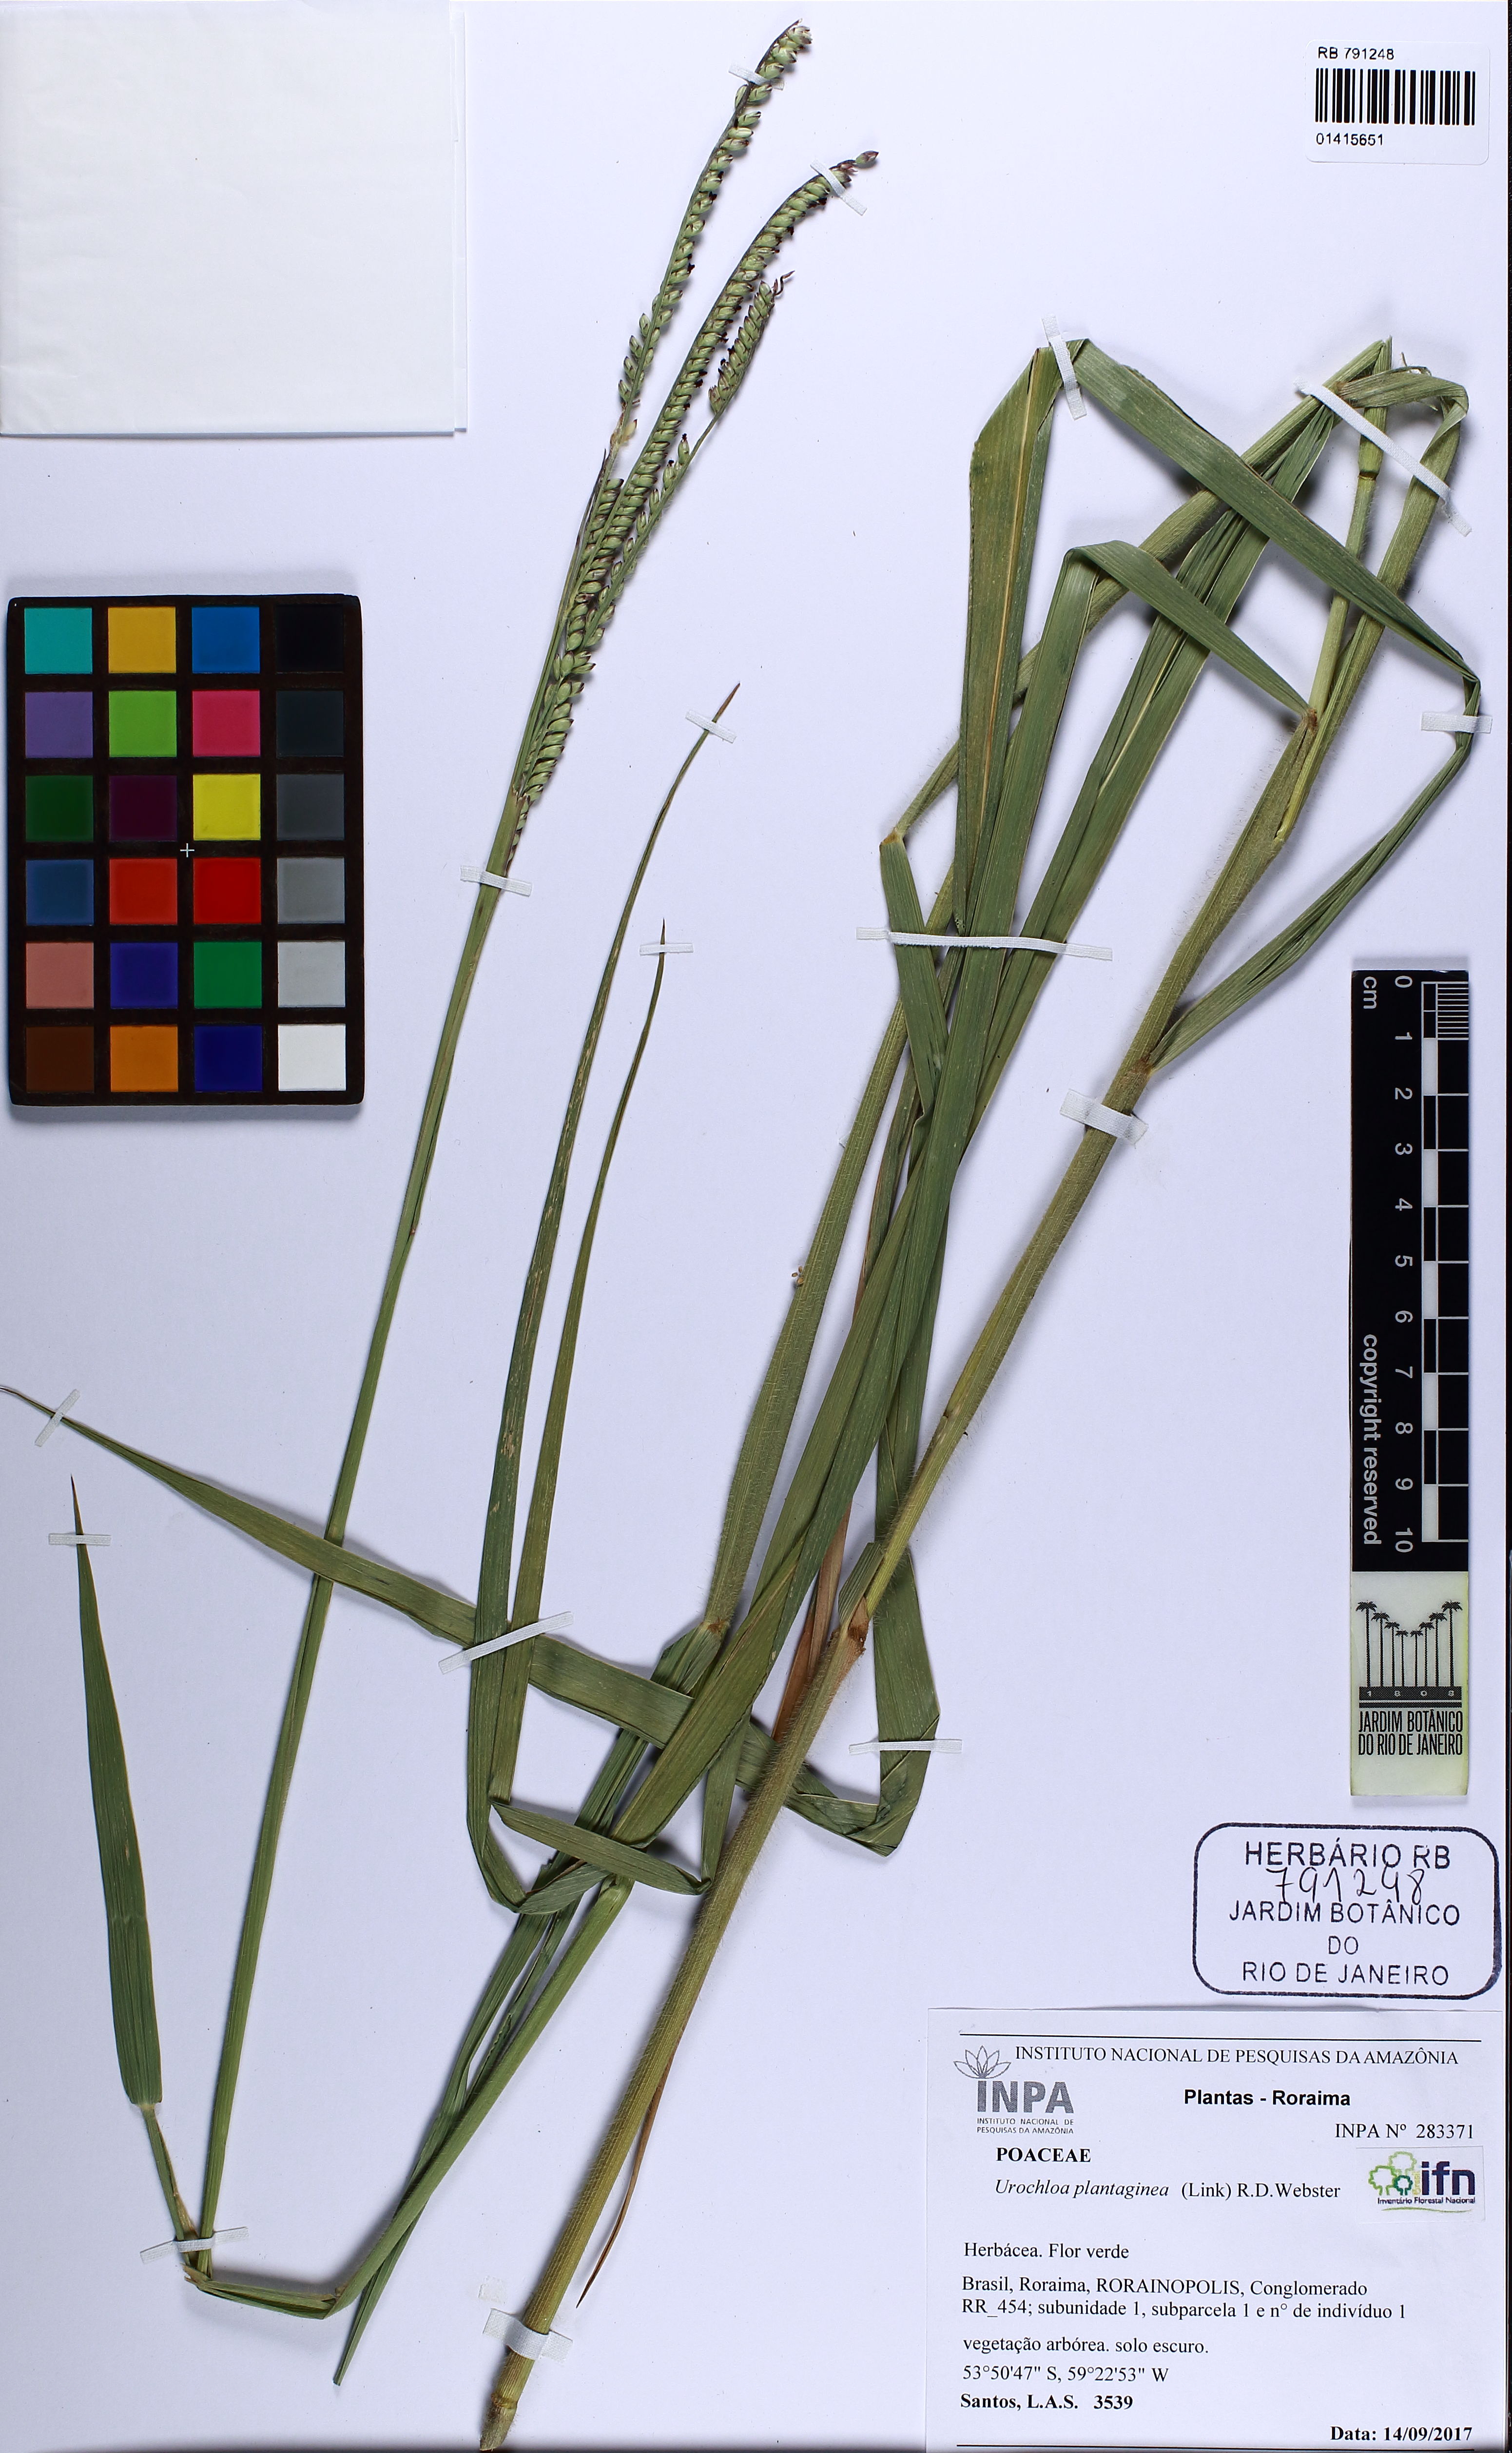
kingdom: Plantae
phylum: Tracheophyta
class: Liliopsida
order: Poales
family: Poaceae
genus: Urochloa
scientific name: Urochloa plantaginea
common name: Plantain signalgrass
